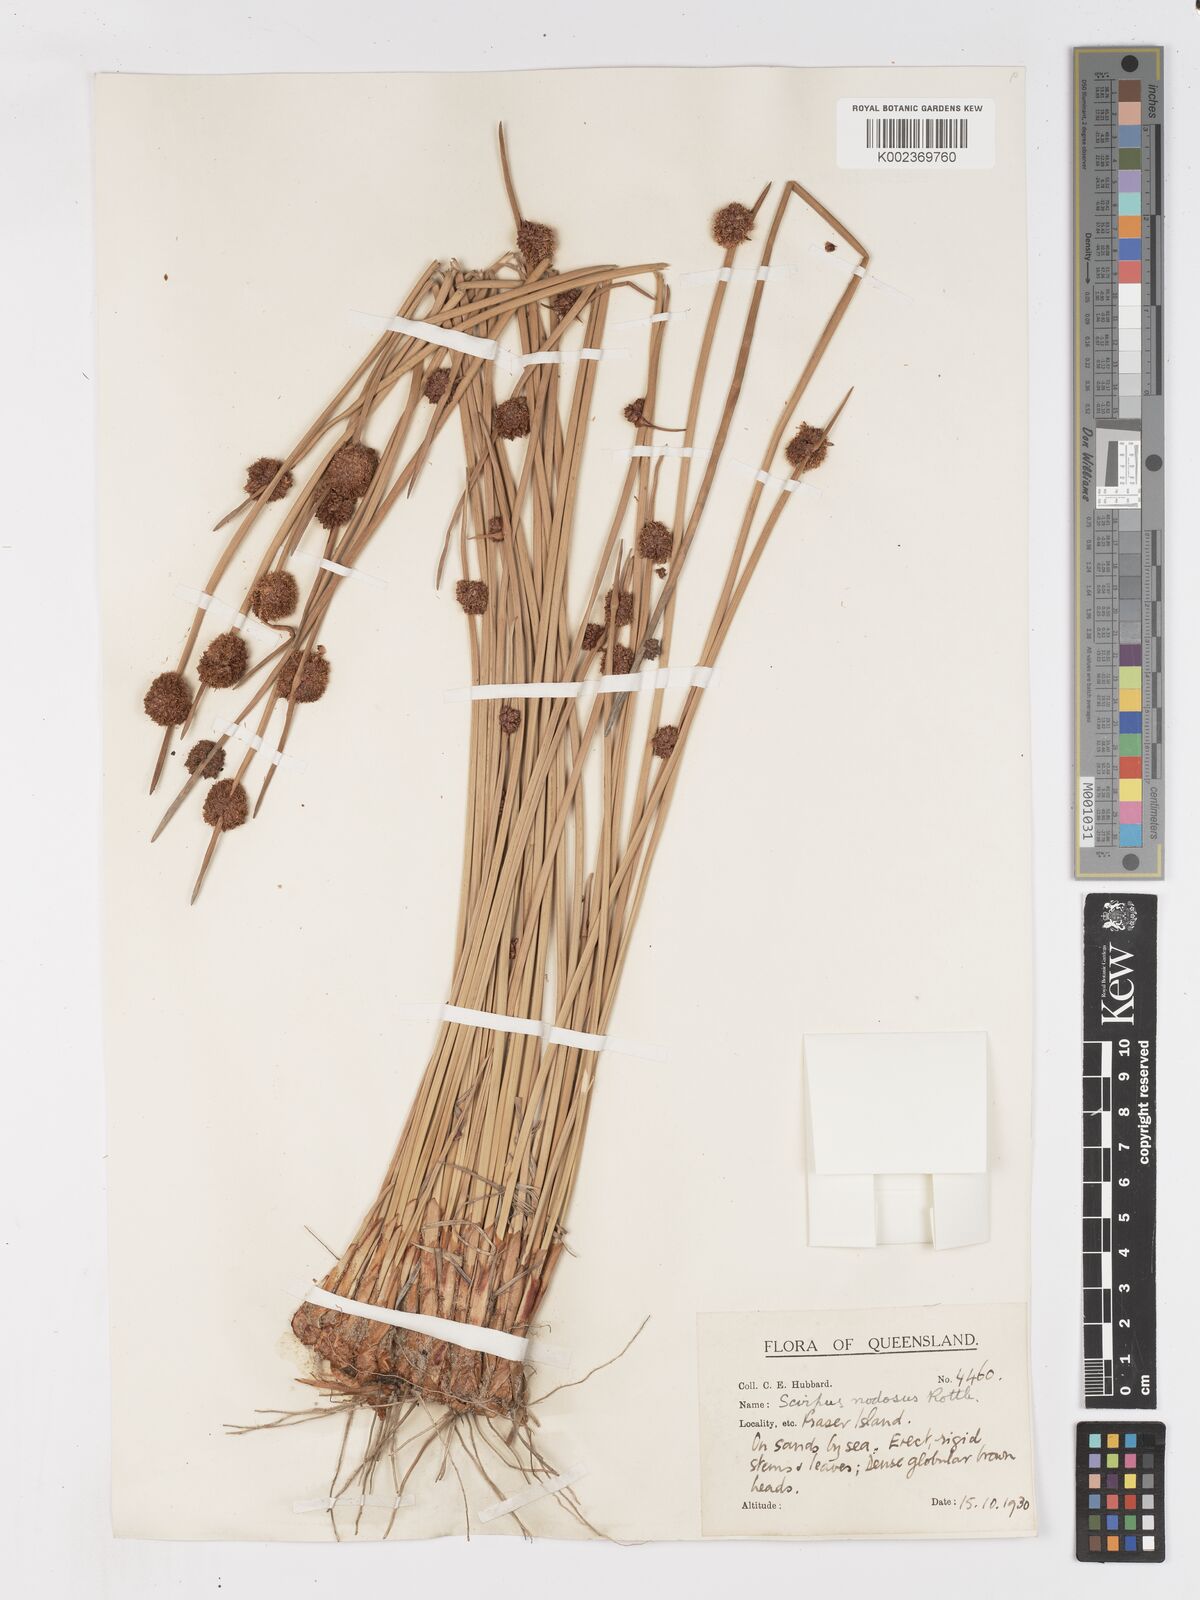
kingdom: Plantae
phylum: Tracheophyta
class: Liliopsida
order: Poales
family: Cyperaceae
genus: Ficinia
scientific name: Ficinia nodosa
